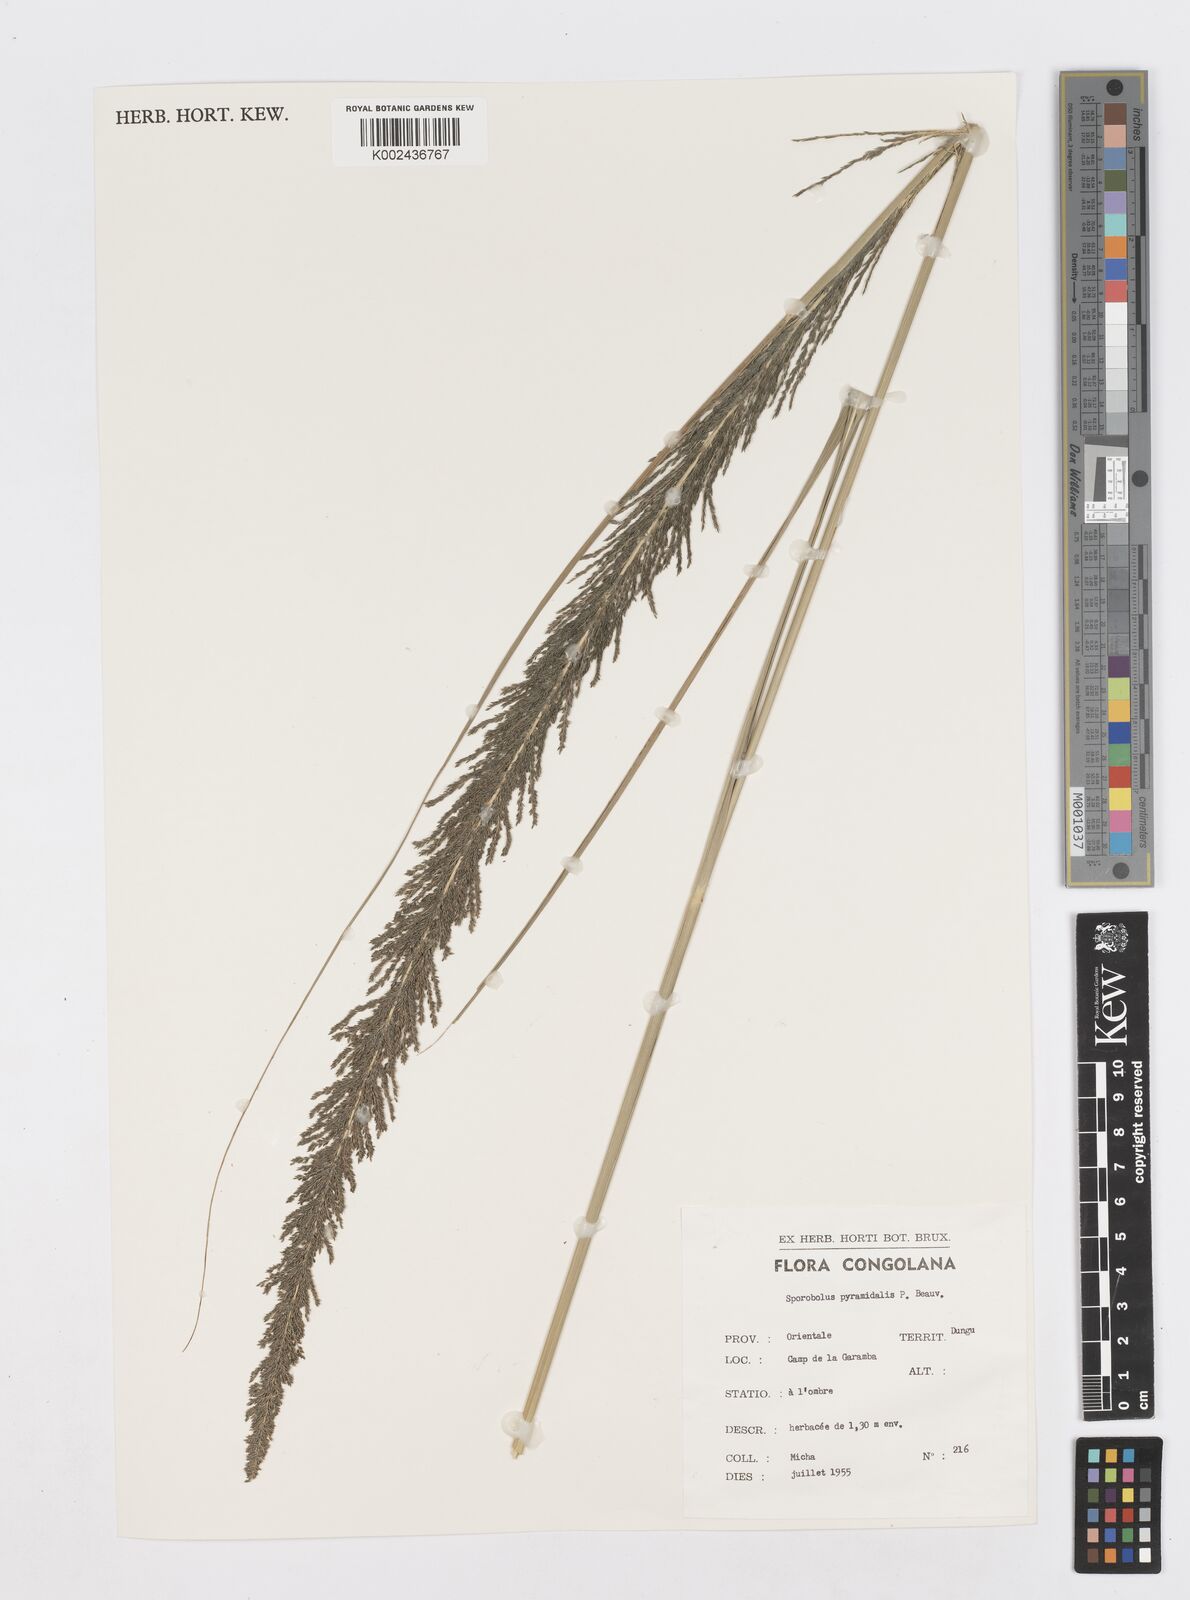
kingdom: Plantae
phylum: Tracheophyta
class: Liliopsida
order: Poales
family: Poaceae
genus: Sporobolus
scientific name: Sporobolus pyramidalis
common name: West indian dropseed
